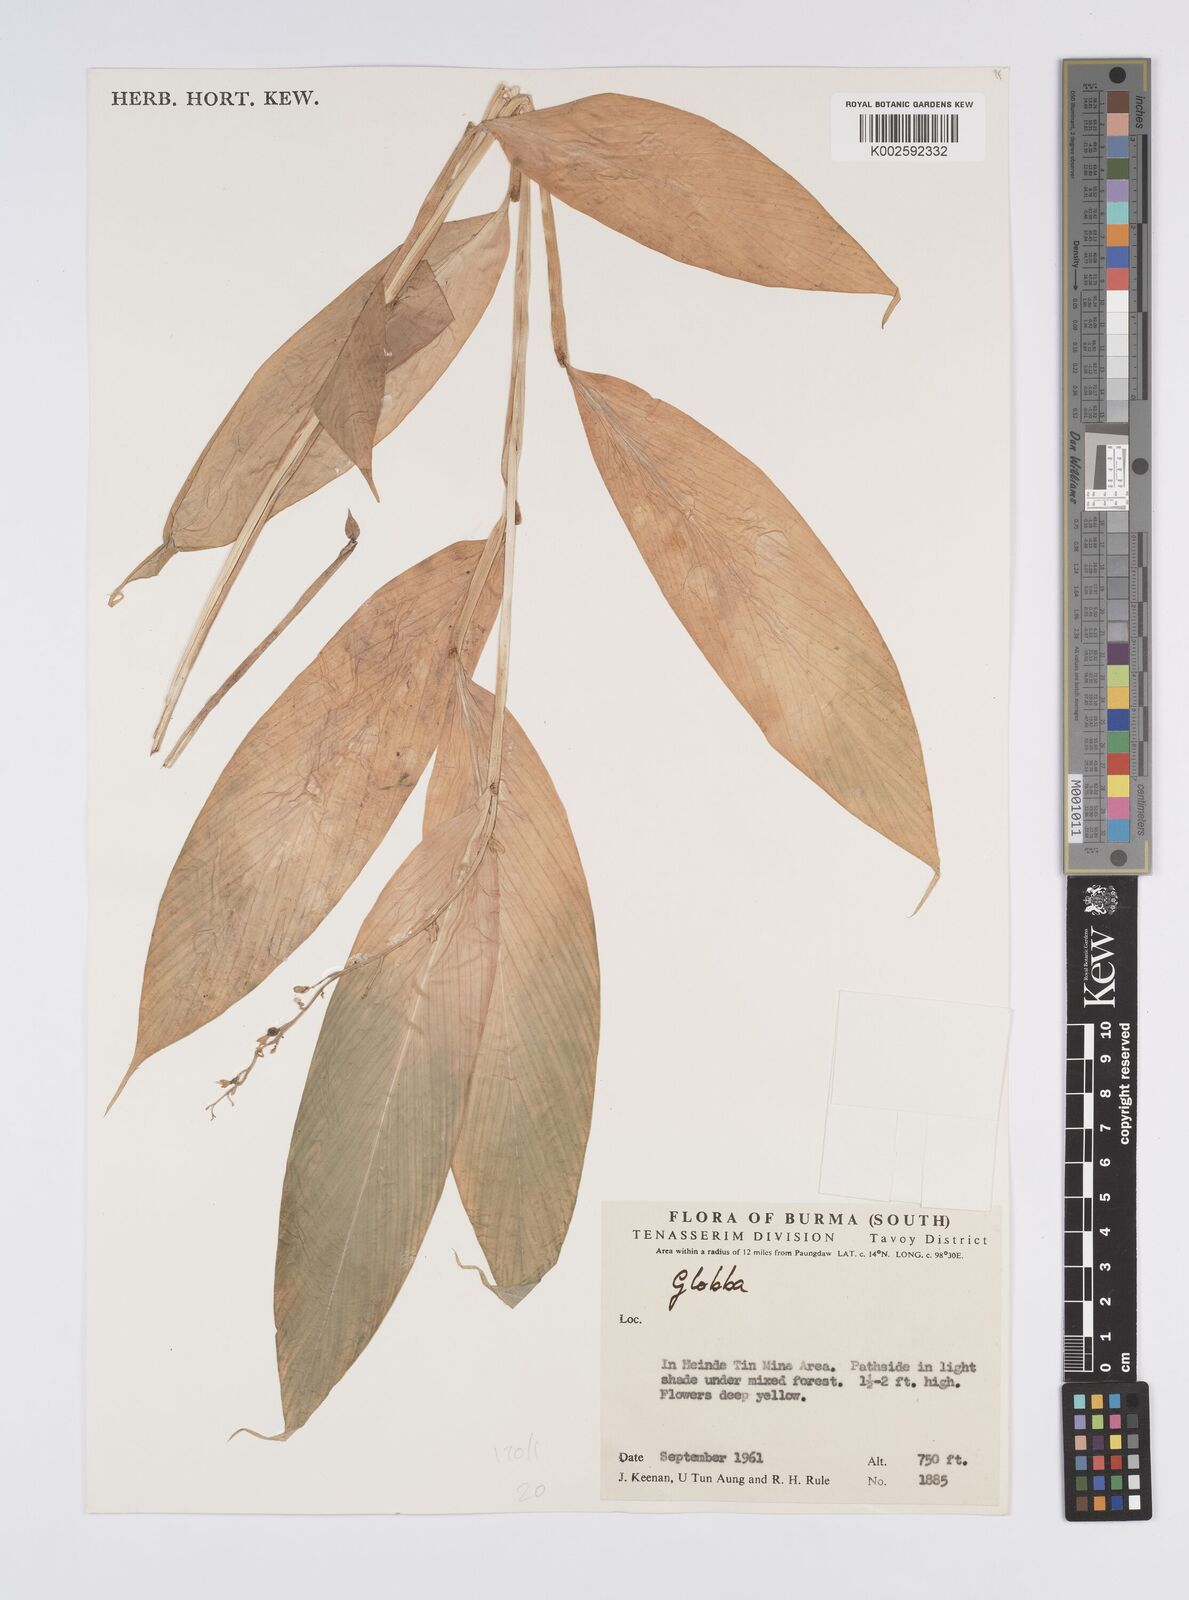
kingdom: Plantae
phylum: Tracheophyta
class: Liliopsida
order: Zingiberales
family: Zingiberaceae
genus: Globba
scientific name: Globba
